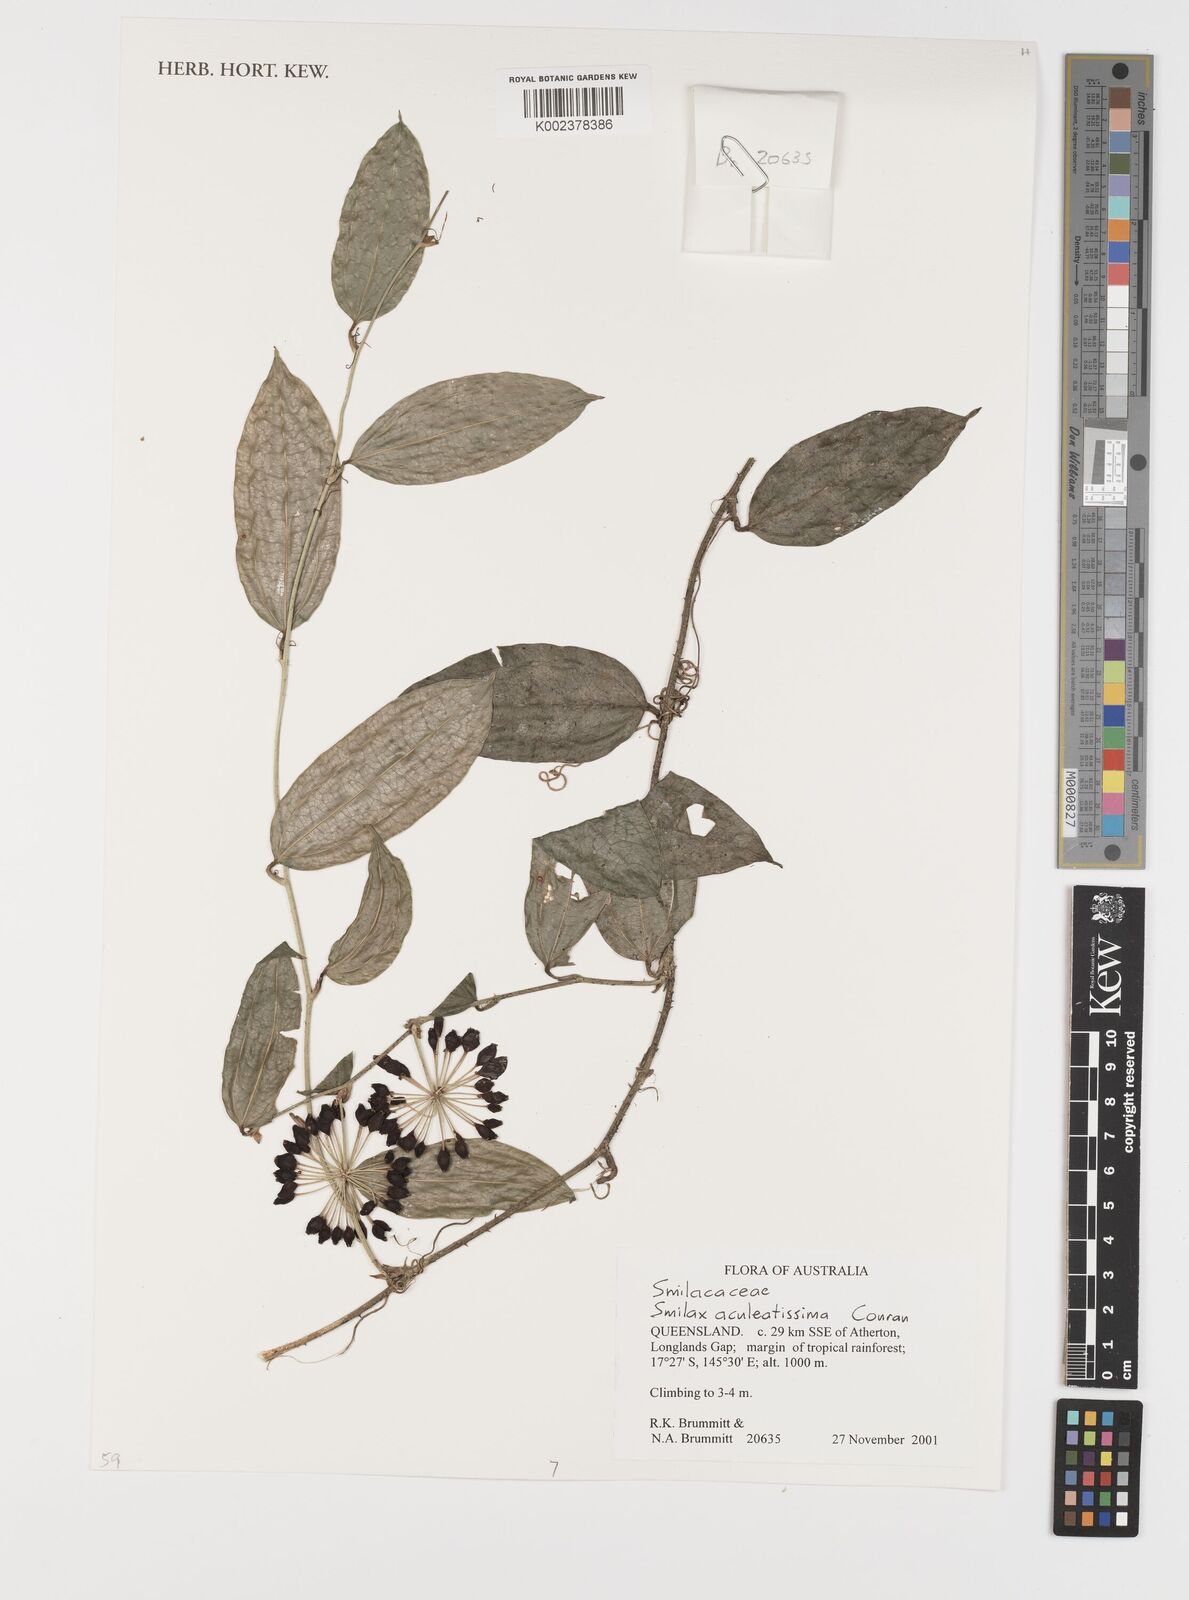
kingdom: Plantae
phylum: Tracheophyta
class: Liliopsida
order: Liliales
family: Smilacaceae
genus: Smilax
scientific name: Smilax aculeatissima
